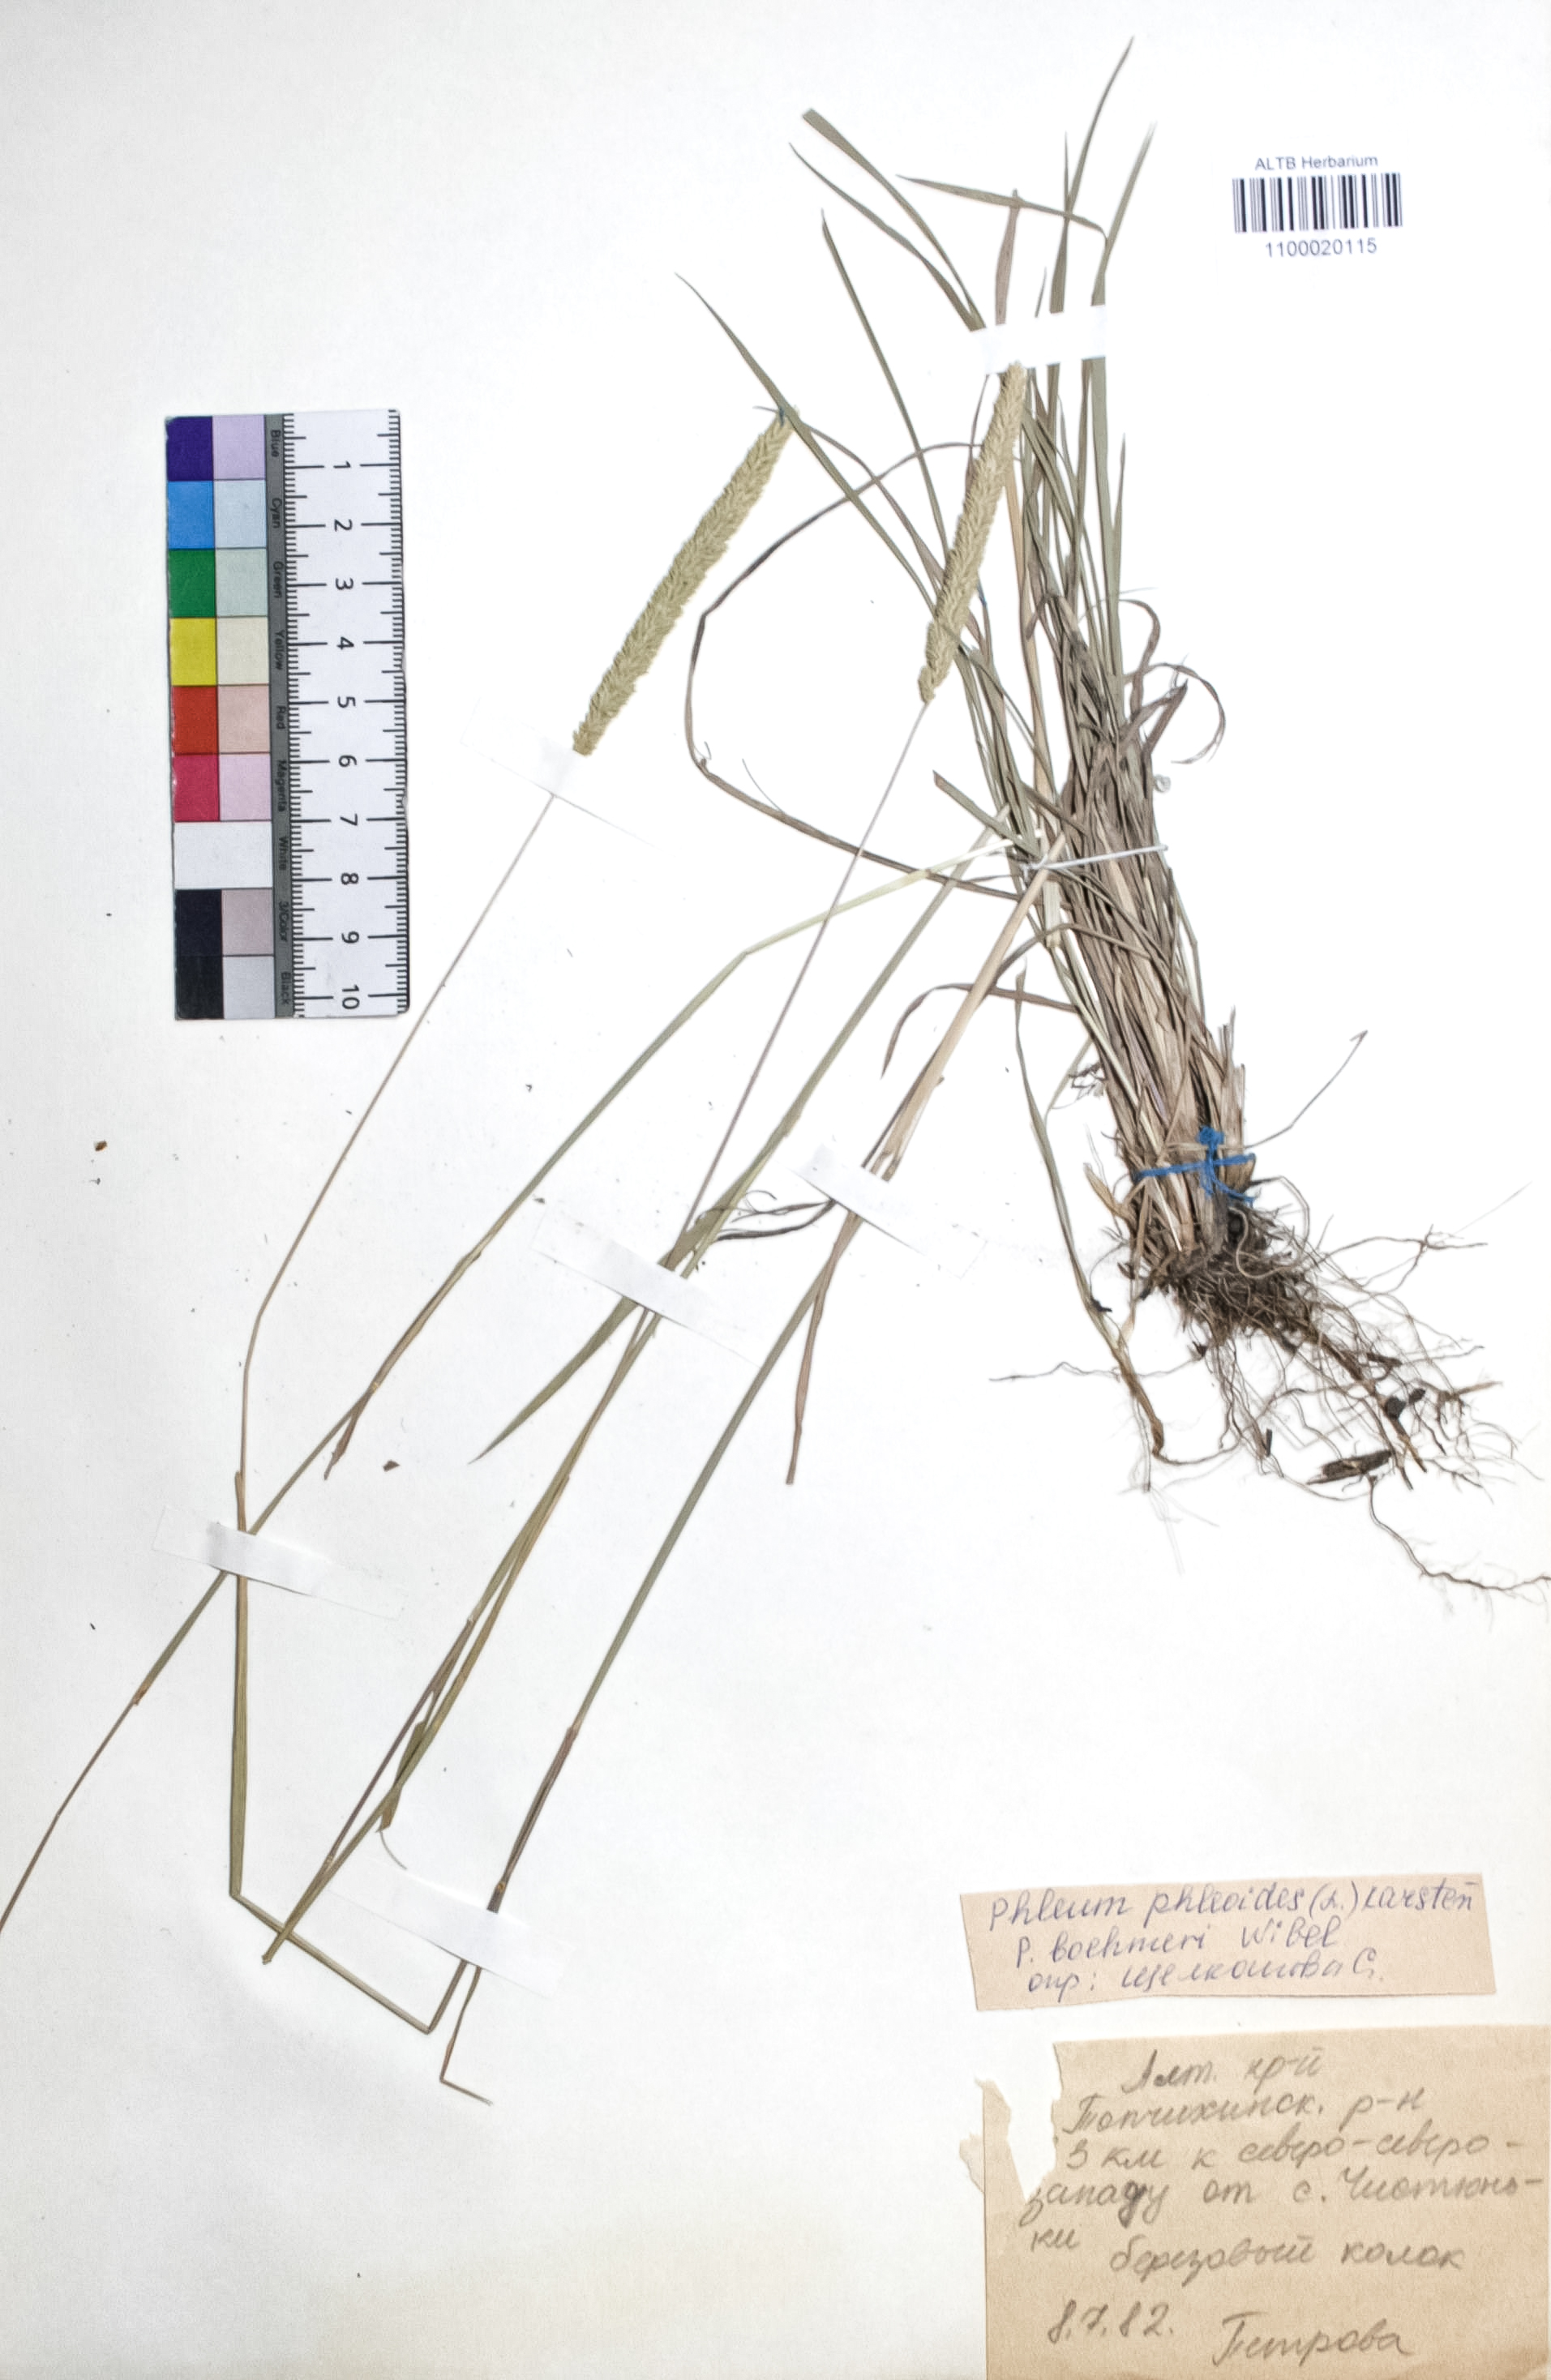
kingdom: Plantae
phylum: Tracheophyta
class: Liliopsida
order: Poales
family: Poaceae
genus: Phleum
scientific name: Phleum phleoides
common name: Purple-stem cat's-tail
